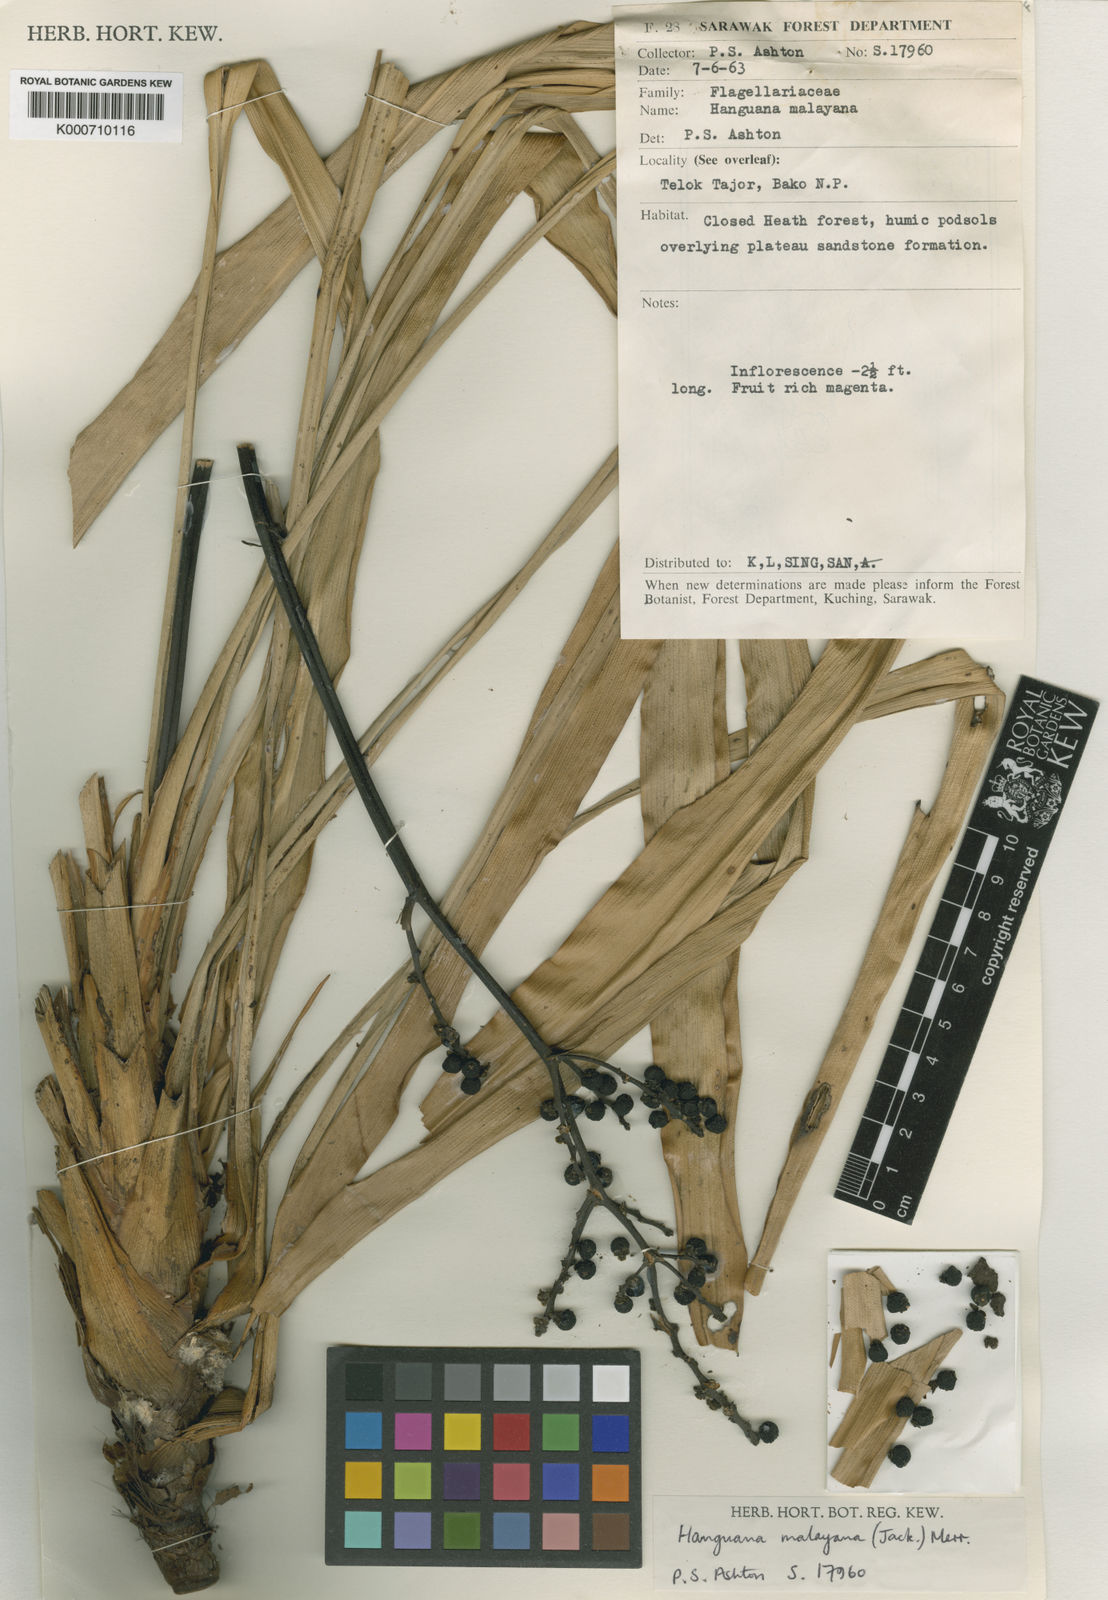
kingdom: Plantae
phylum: Tracheophyta
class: Liliopsida
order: Commelinales
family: Hanguanaceae
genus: Hanguana
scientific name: Hanguana malayana
